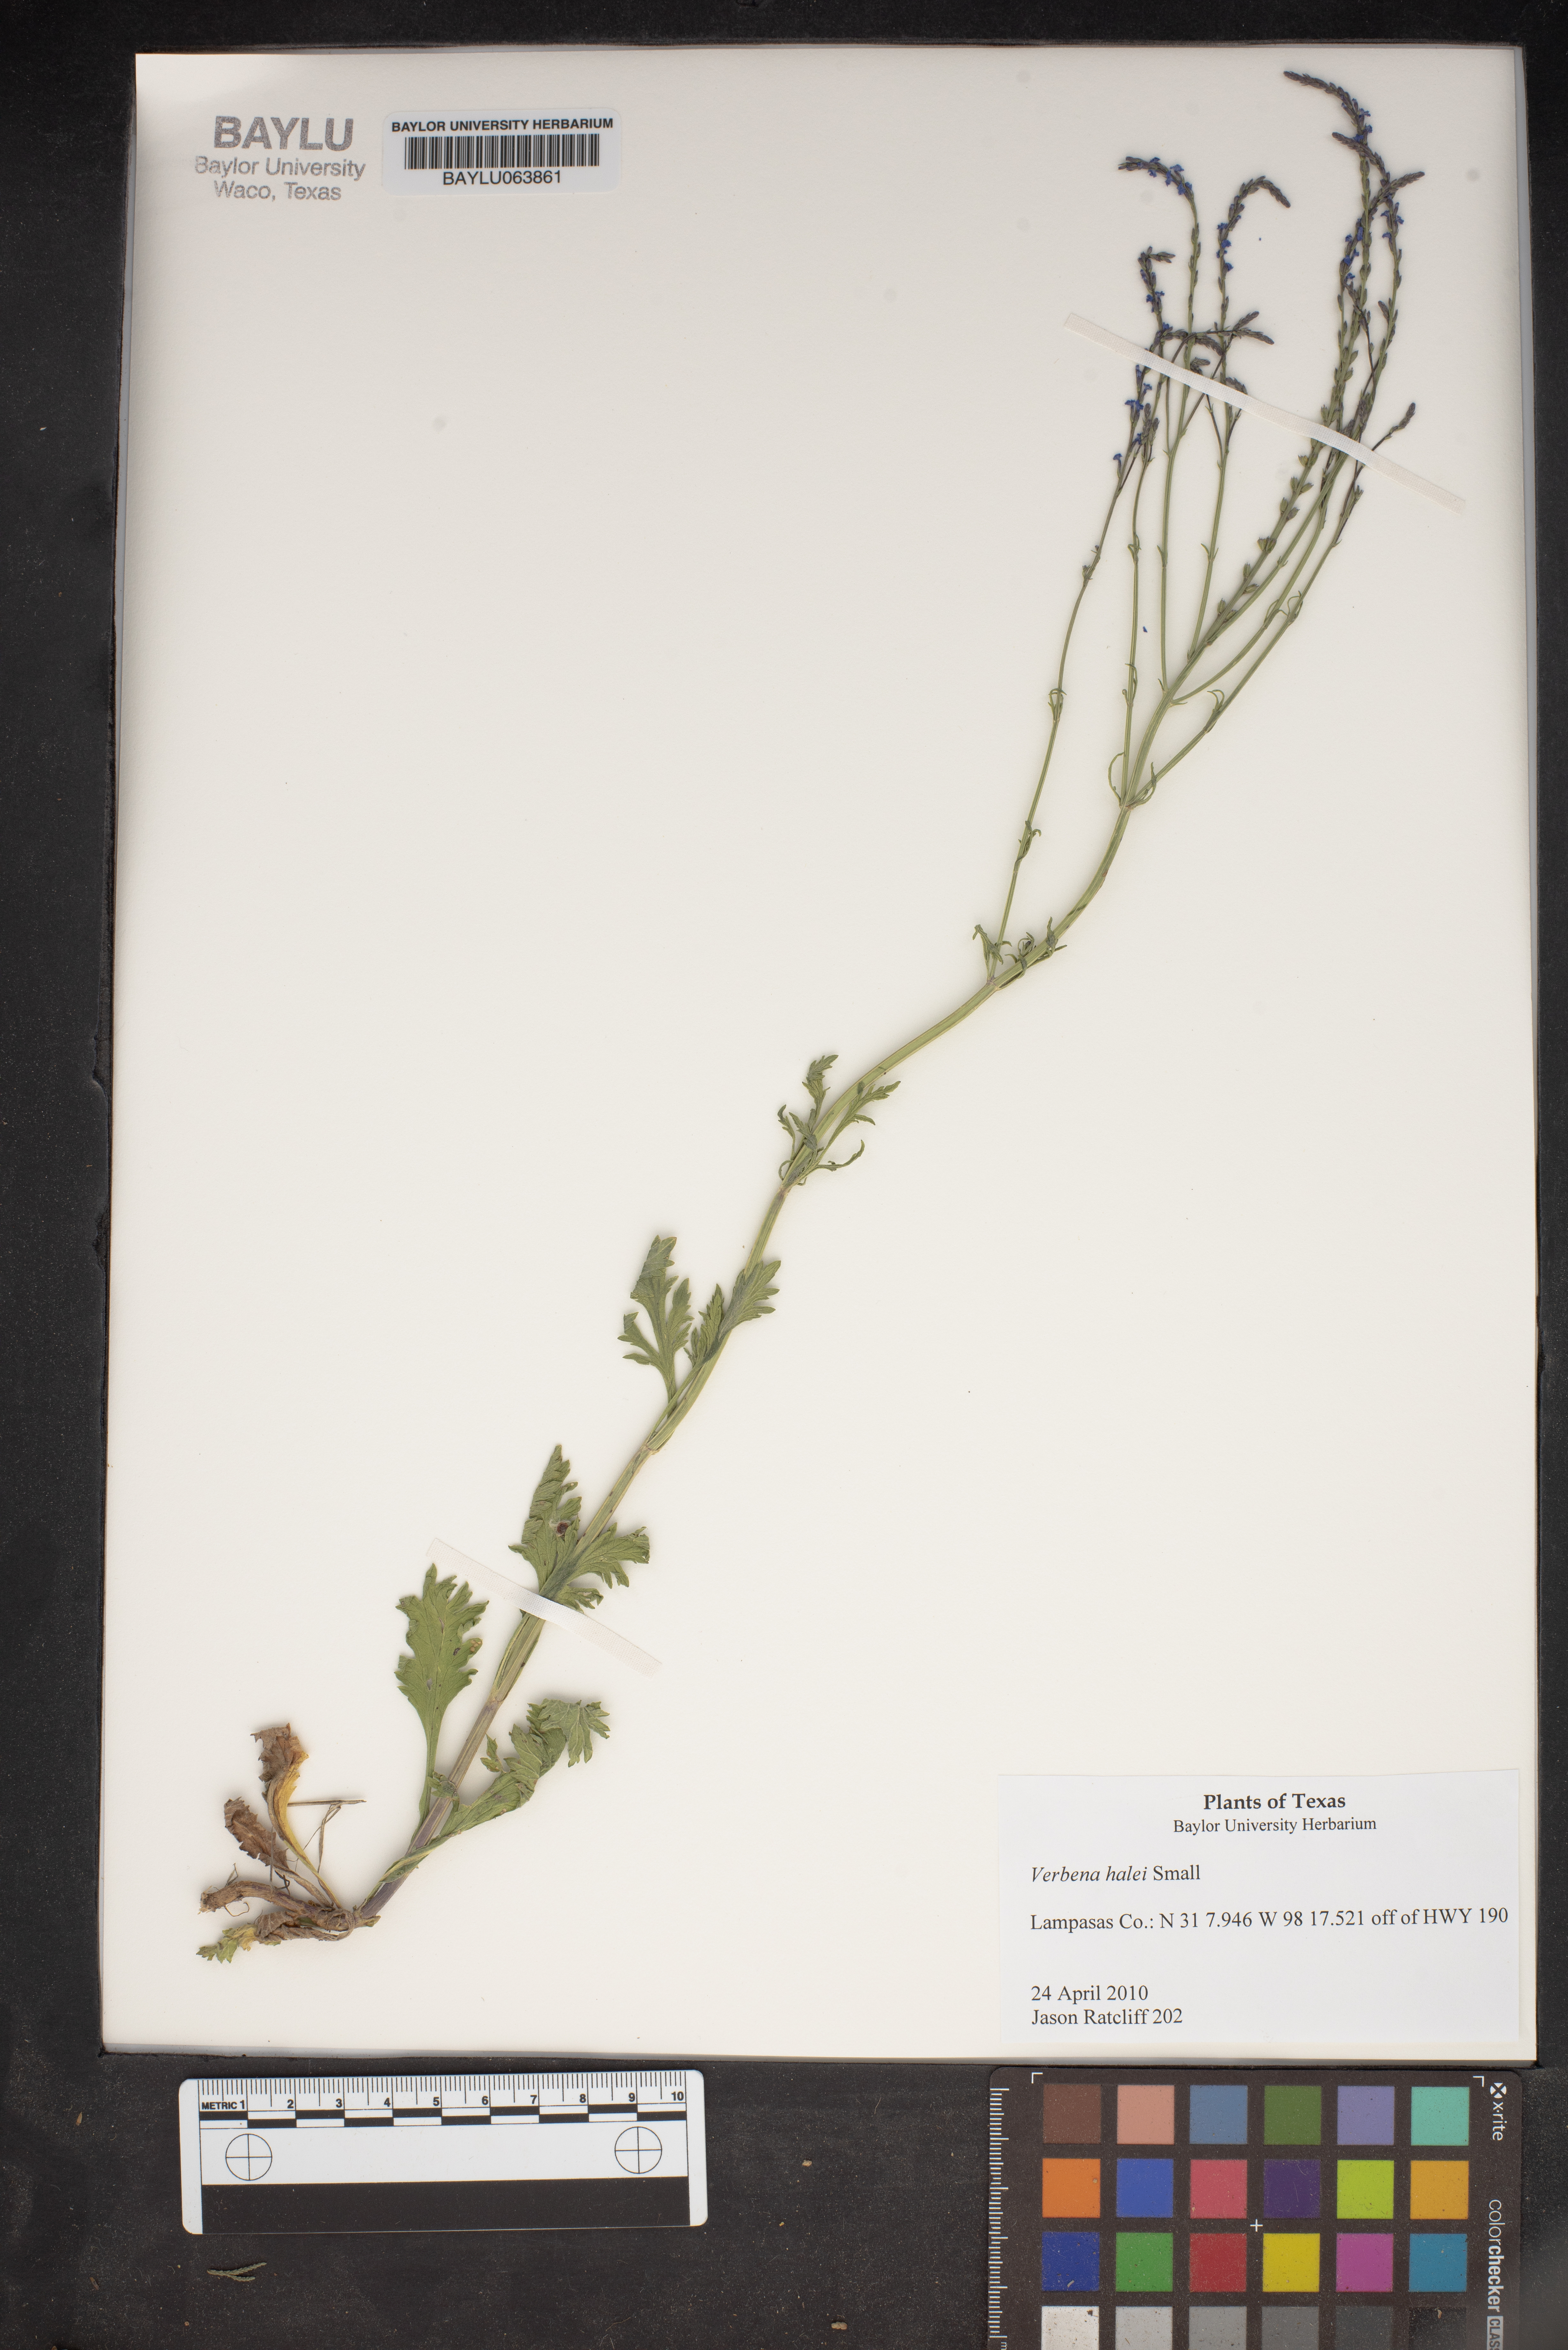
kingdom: Plantae
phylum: Tracheophyta
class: Magnoliopsida
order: Lamiales
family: Verbenaceae
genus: Verbena
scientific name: Verbena halei
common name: Texas vervain
